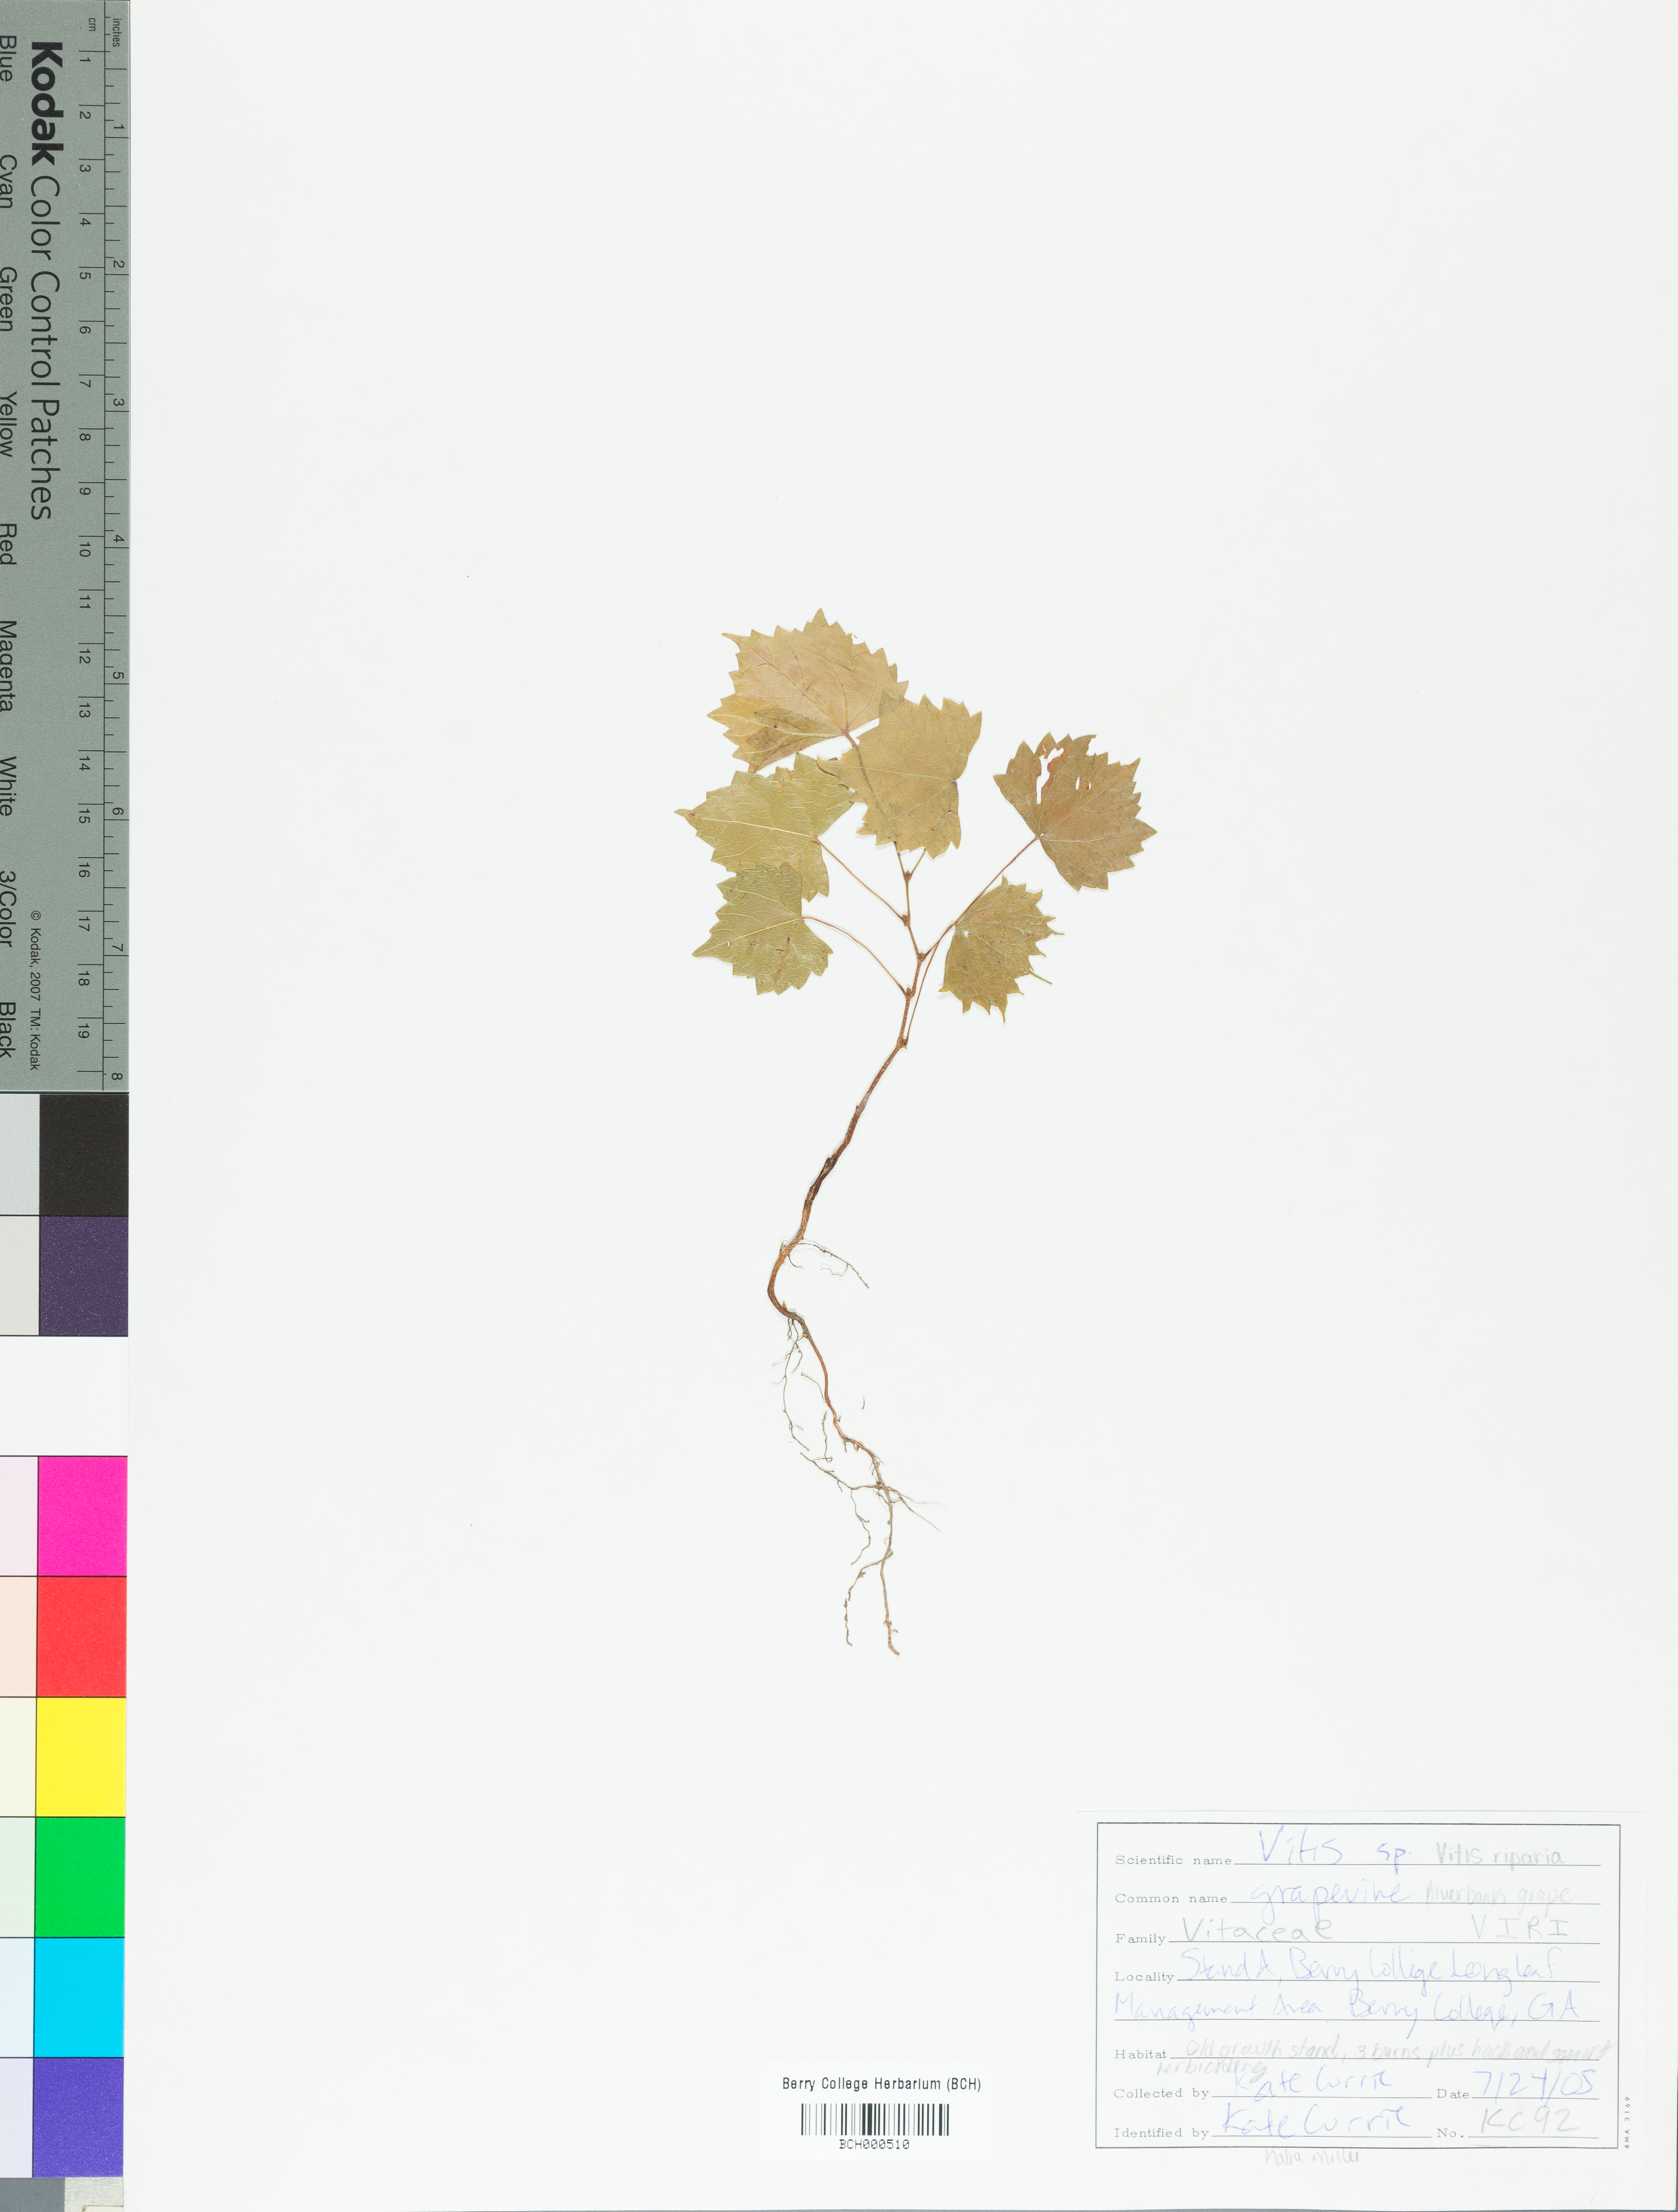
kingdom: Plantae
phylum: Tracheophyta
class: Magnoliopsida
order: Vitales
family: Vitaceae
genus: Vitis
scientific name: Vitis riparia
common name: Frost grape
